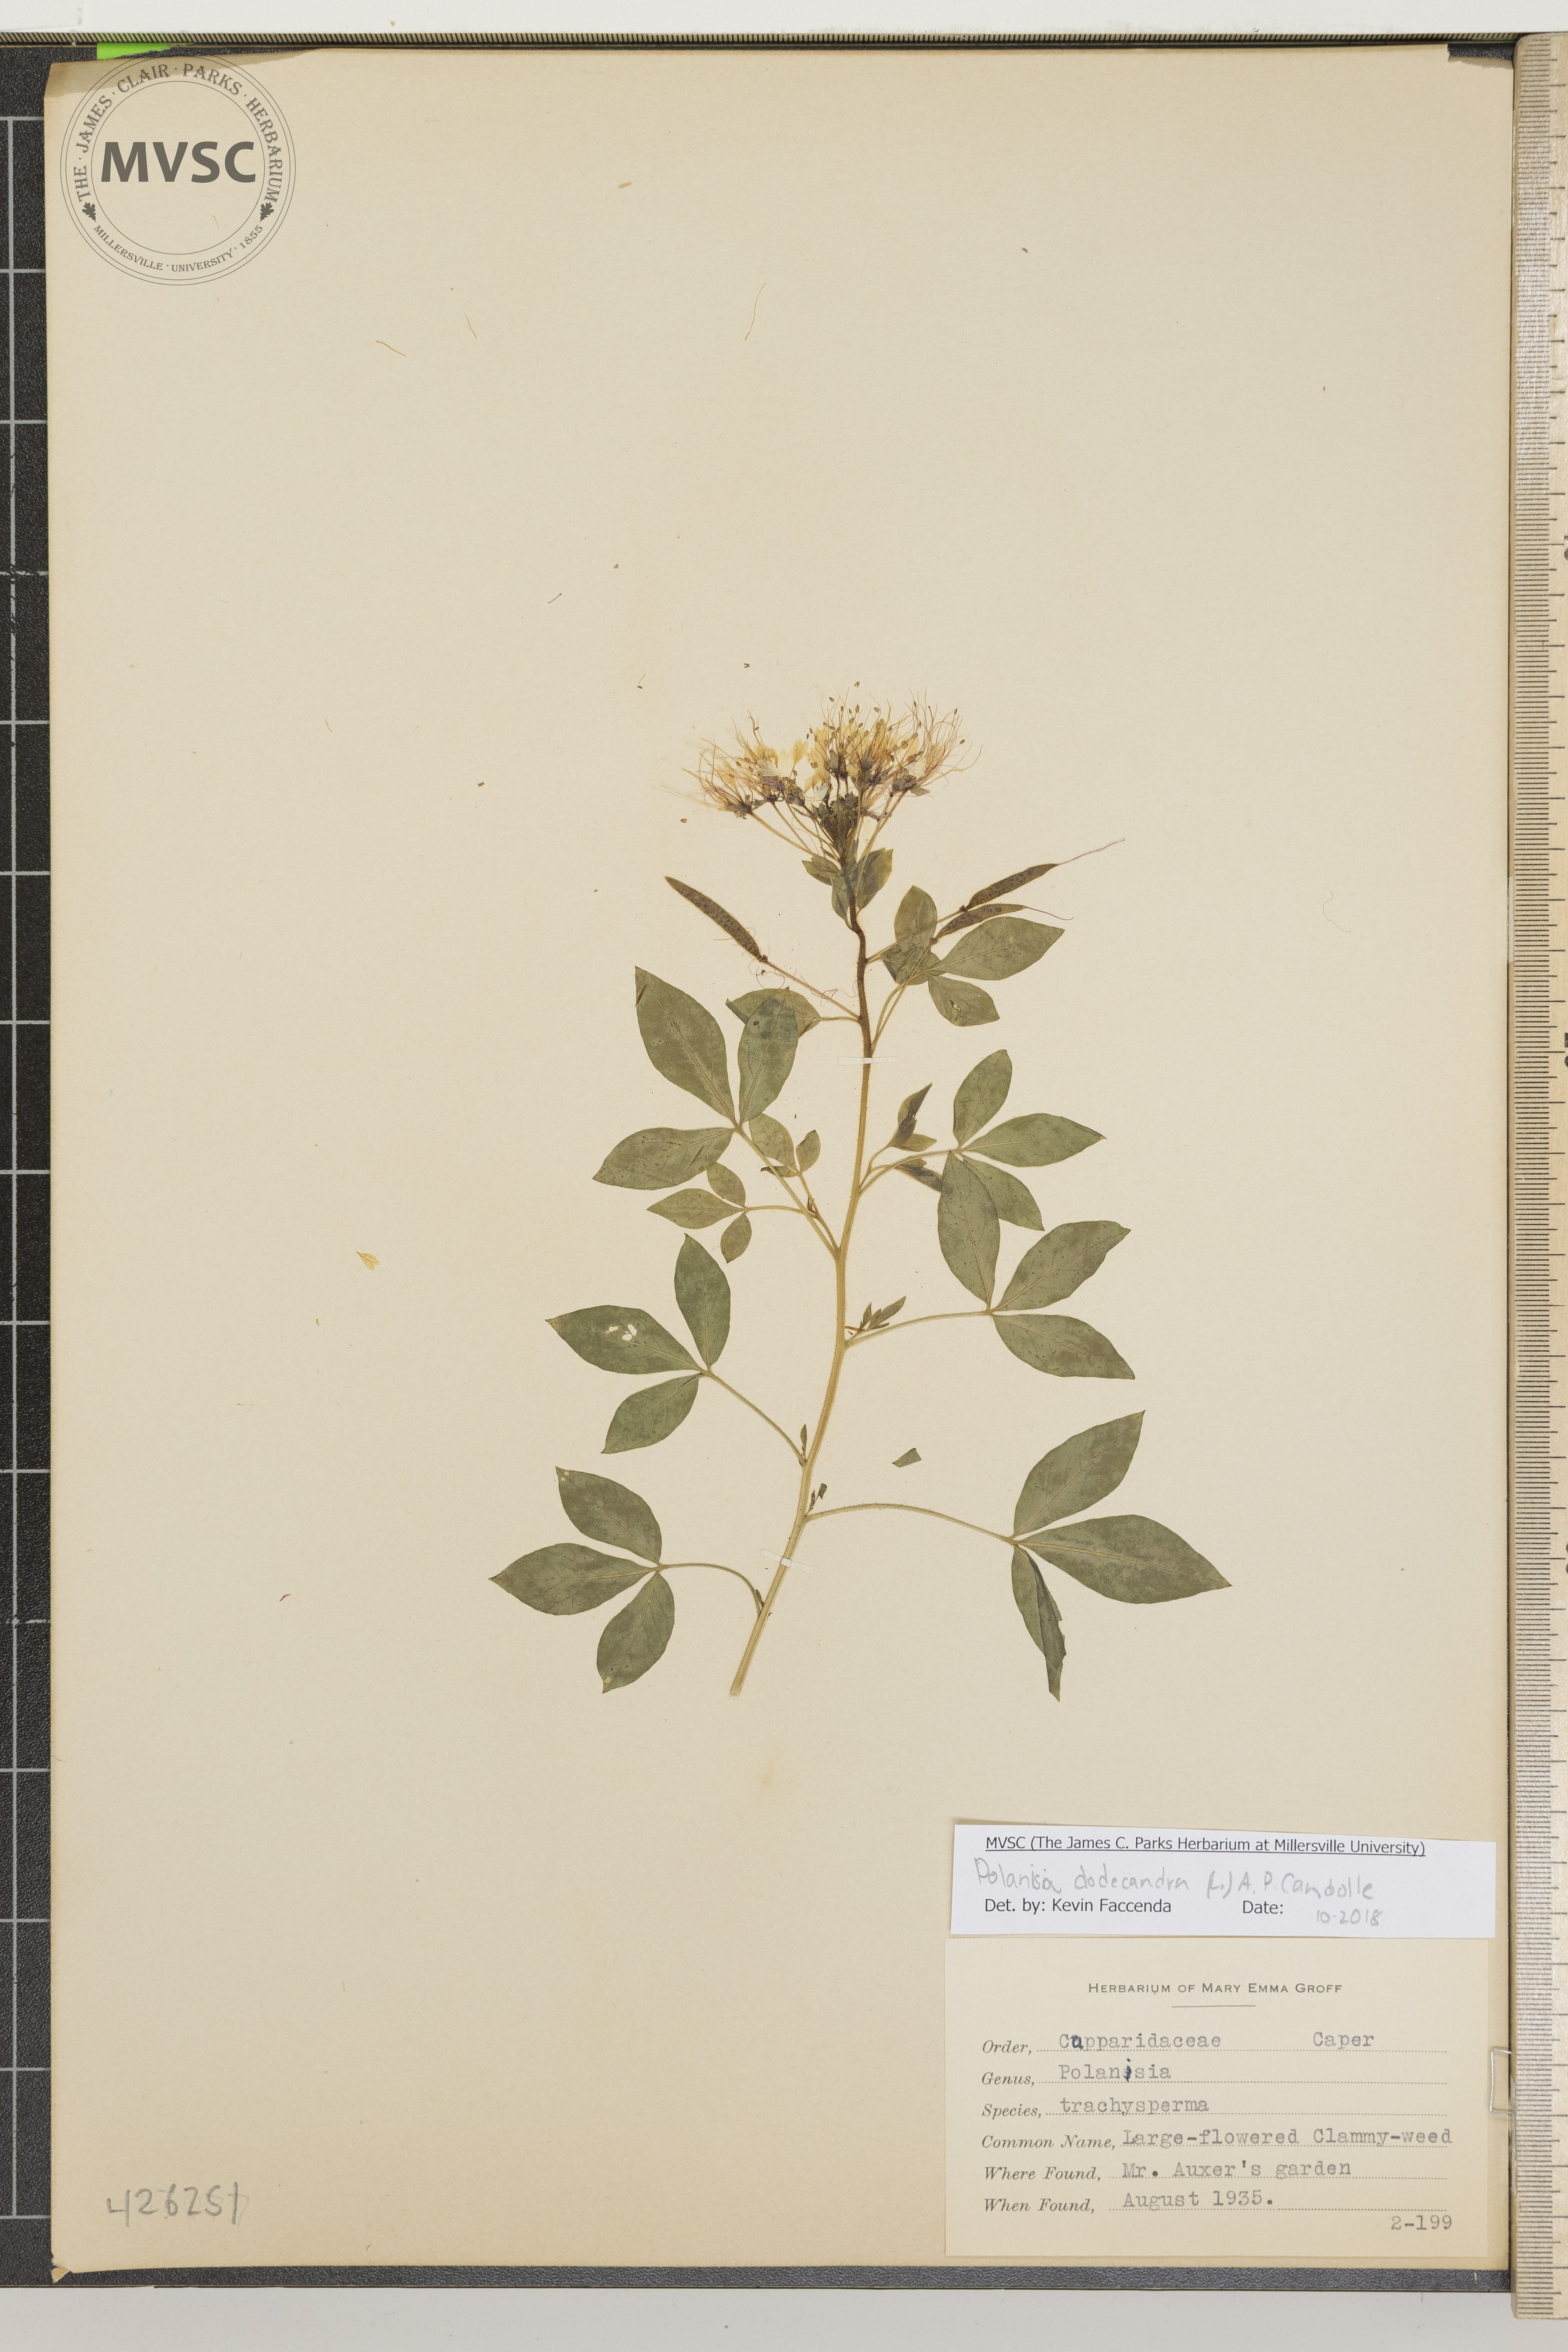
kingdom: Plantae
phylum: Tracheophyta
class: Magnoliopsida
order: Brassicales
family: Cleomaceae
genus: Polanisia
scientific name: Polanisia
